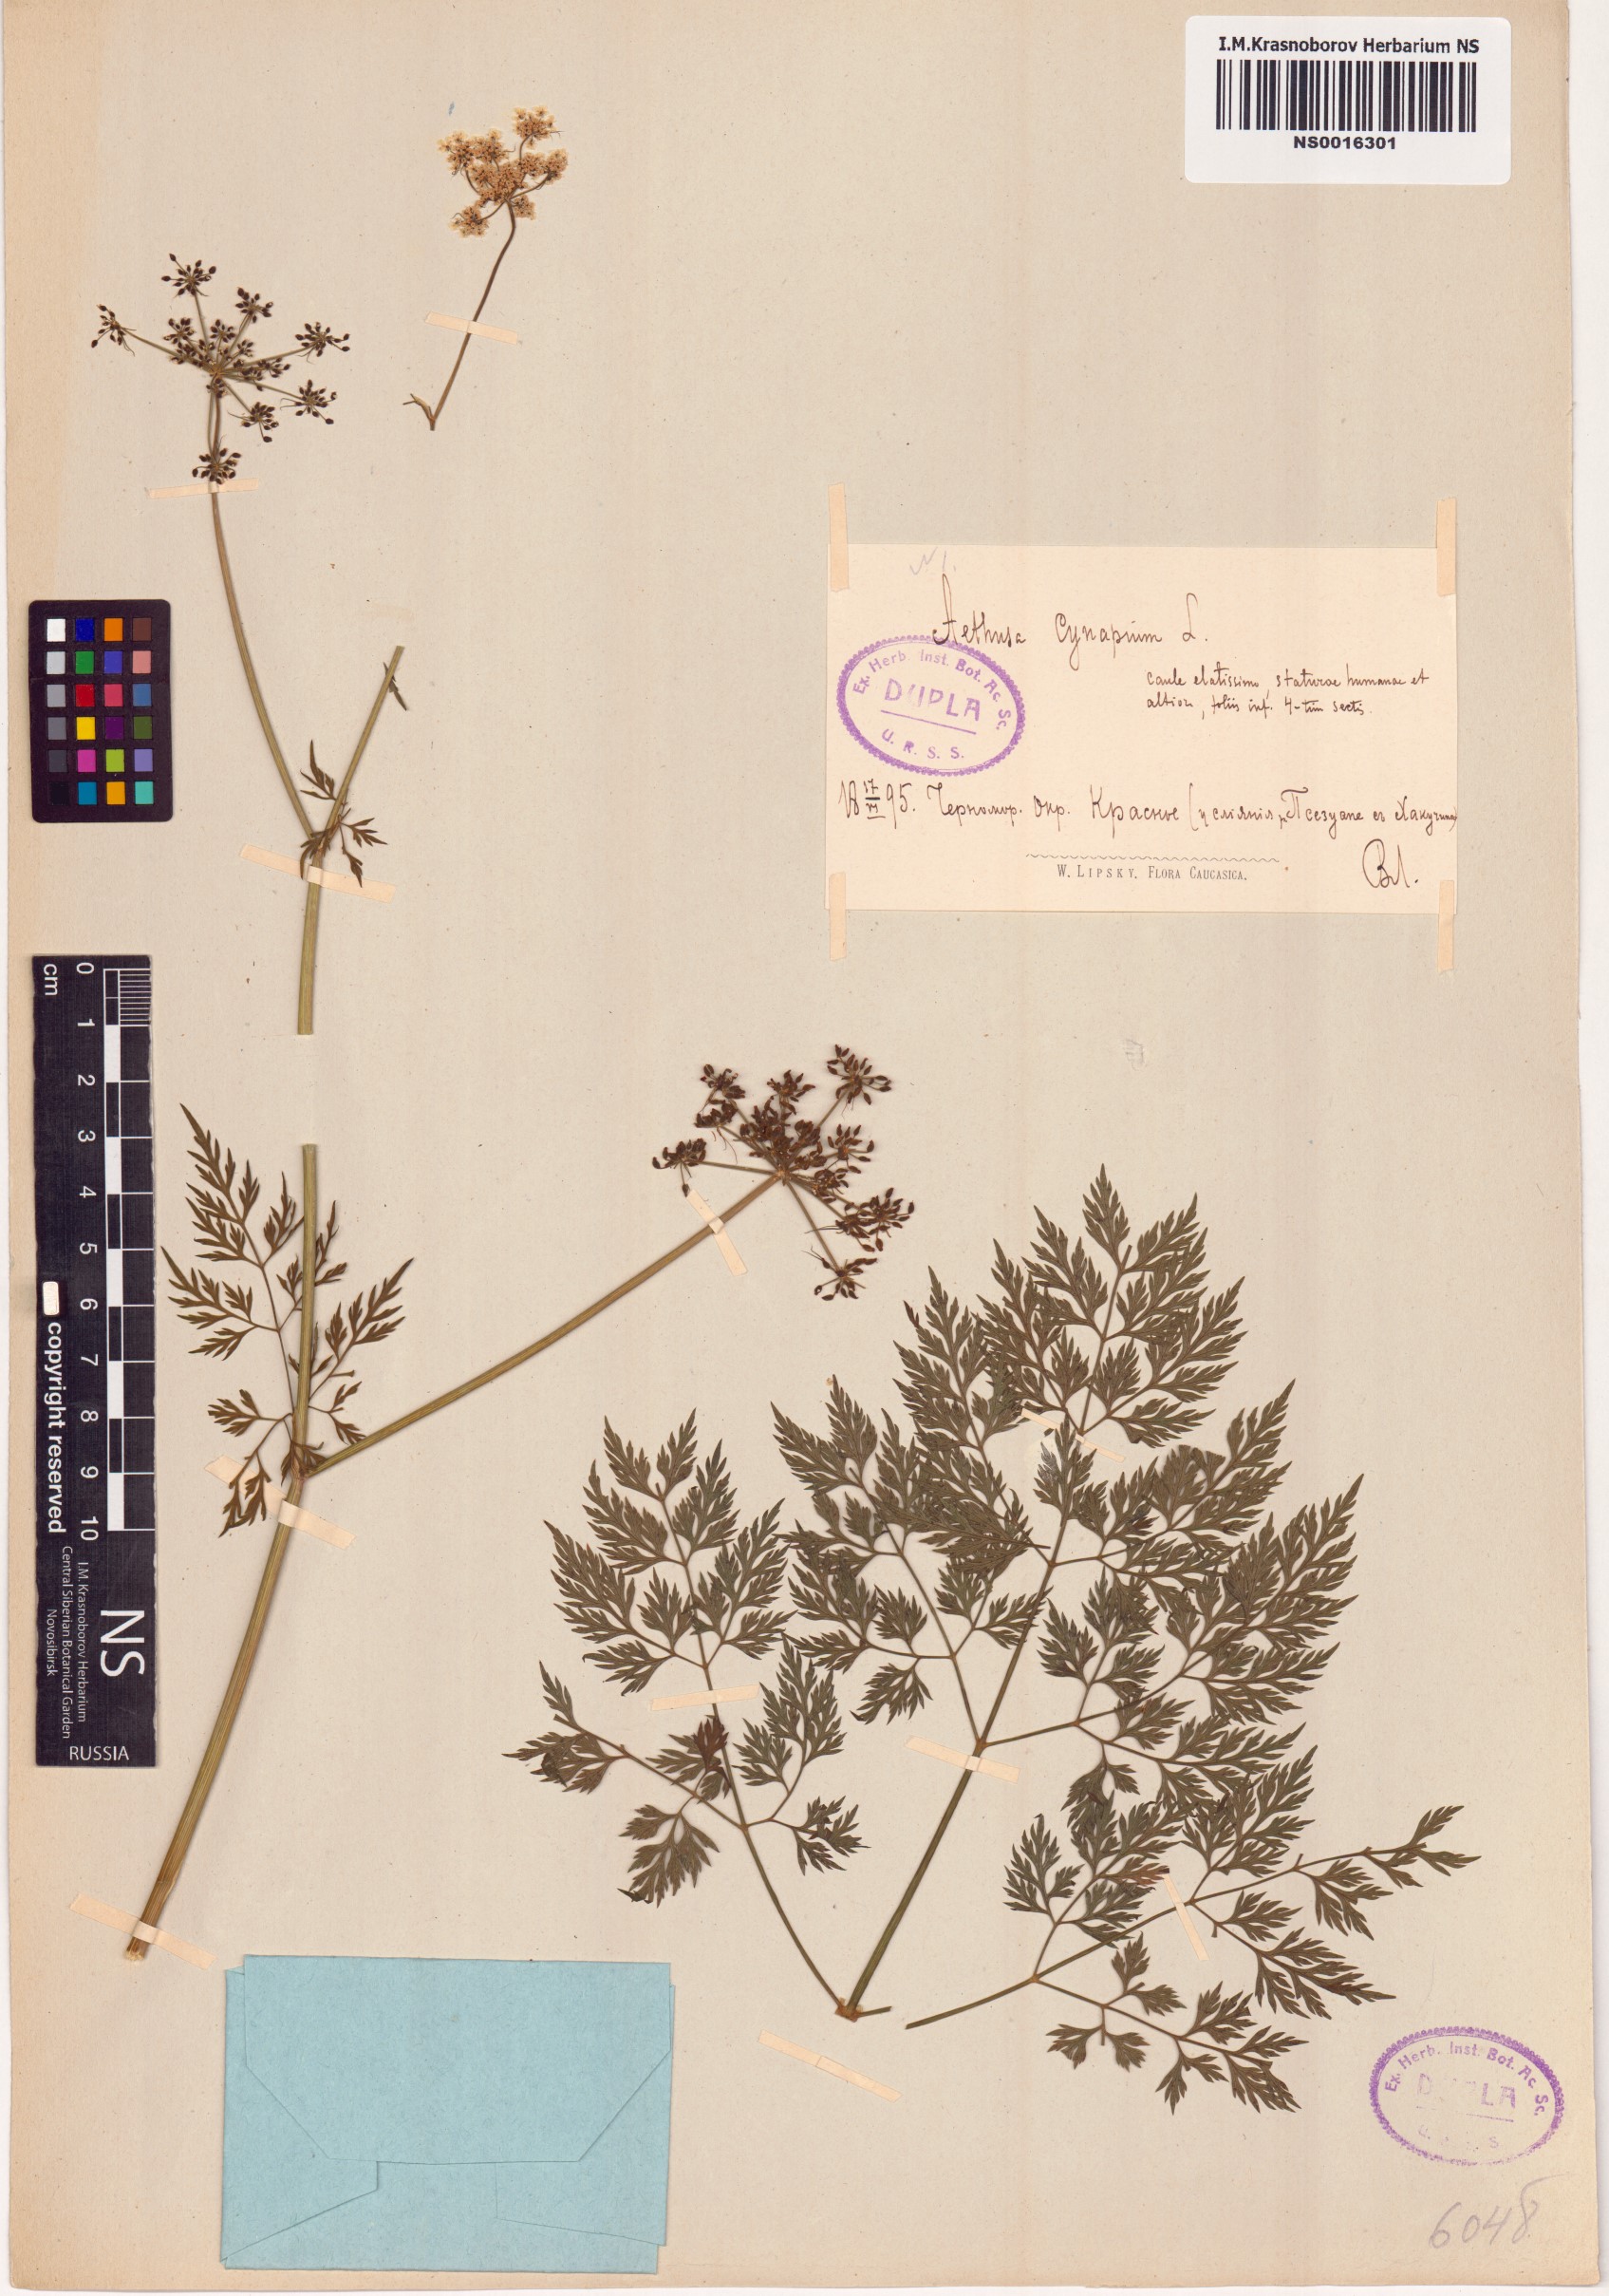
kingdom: Plantae
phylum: Tracheophyta
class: Magnoliopsida
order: Apiales
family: Apiaceae
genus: Aethusa
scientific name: Aethusa cynapium
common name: Fool's parsley
